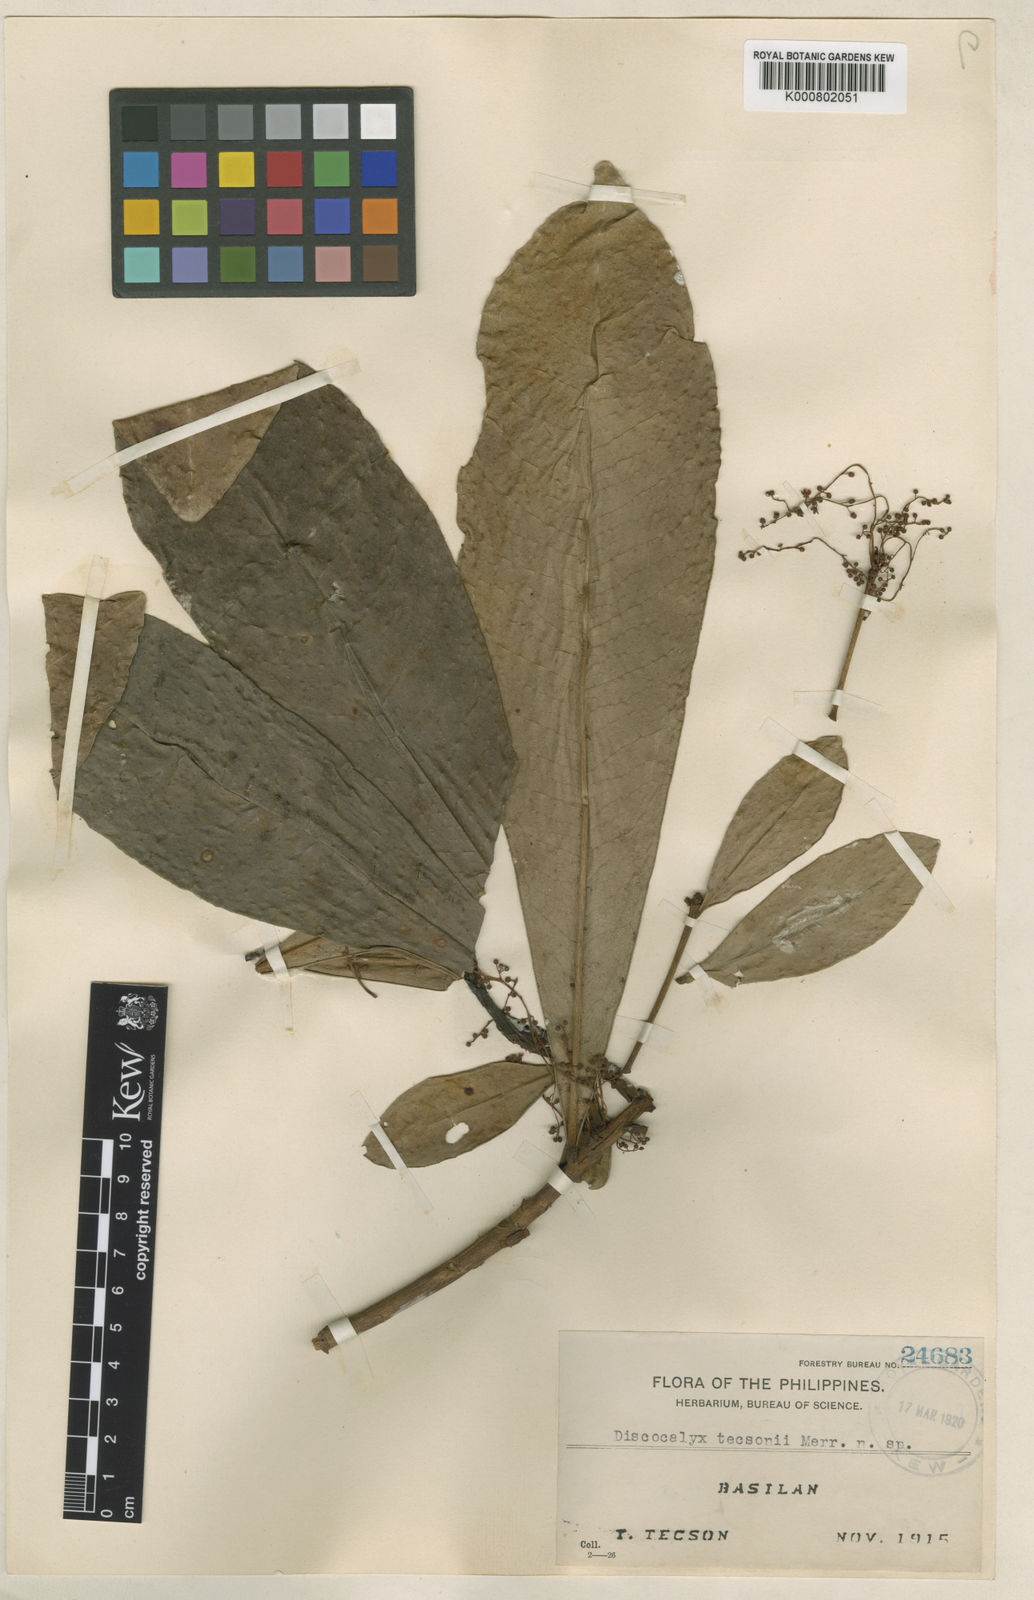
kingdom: Plantae
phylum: Tracheophyta
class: Magnoliopsida
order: Ericales
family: Primulaceae
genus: Discocalyx
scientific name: Discocalyx tecsonii
